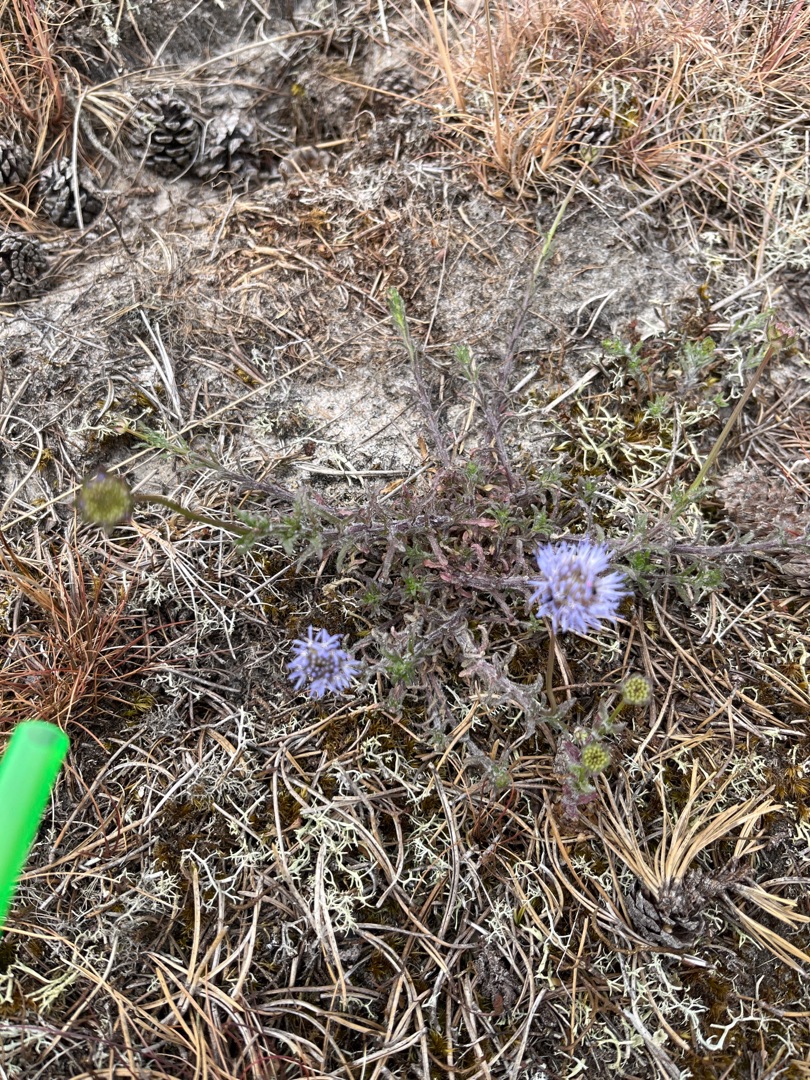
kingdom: Plantae
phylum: Tracheophyta
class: Magnoliopsida
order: Asterales
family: Campanulaceae
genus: Jasione
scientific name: Jasione montana
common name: Blåmunke
